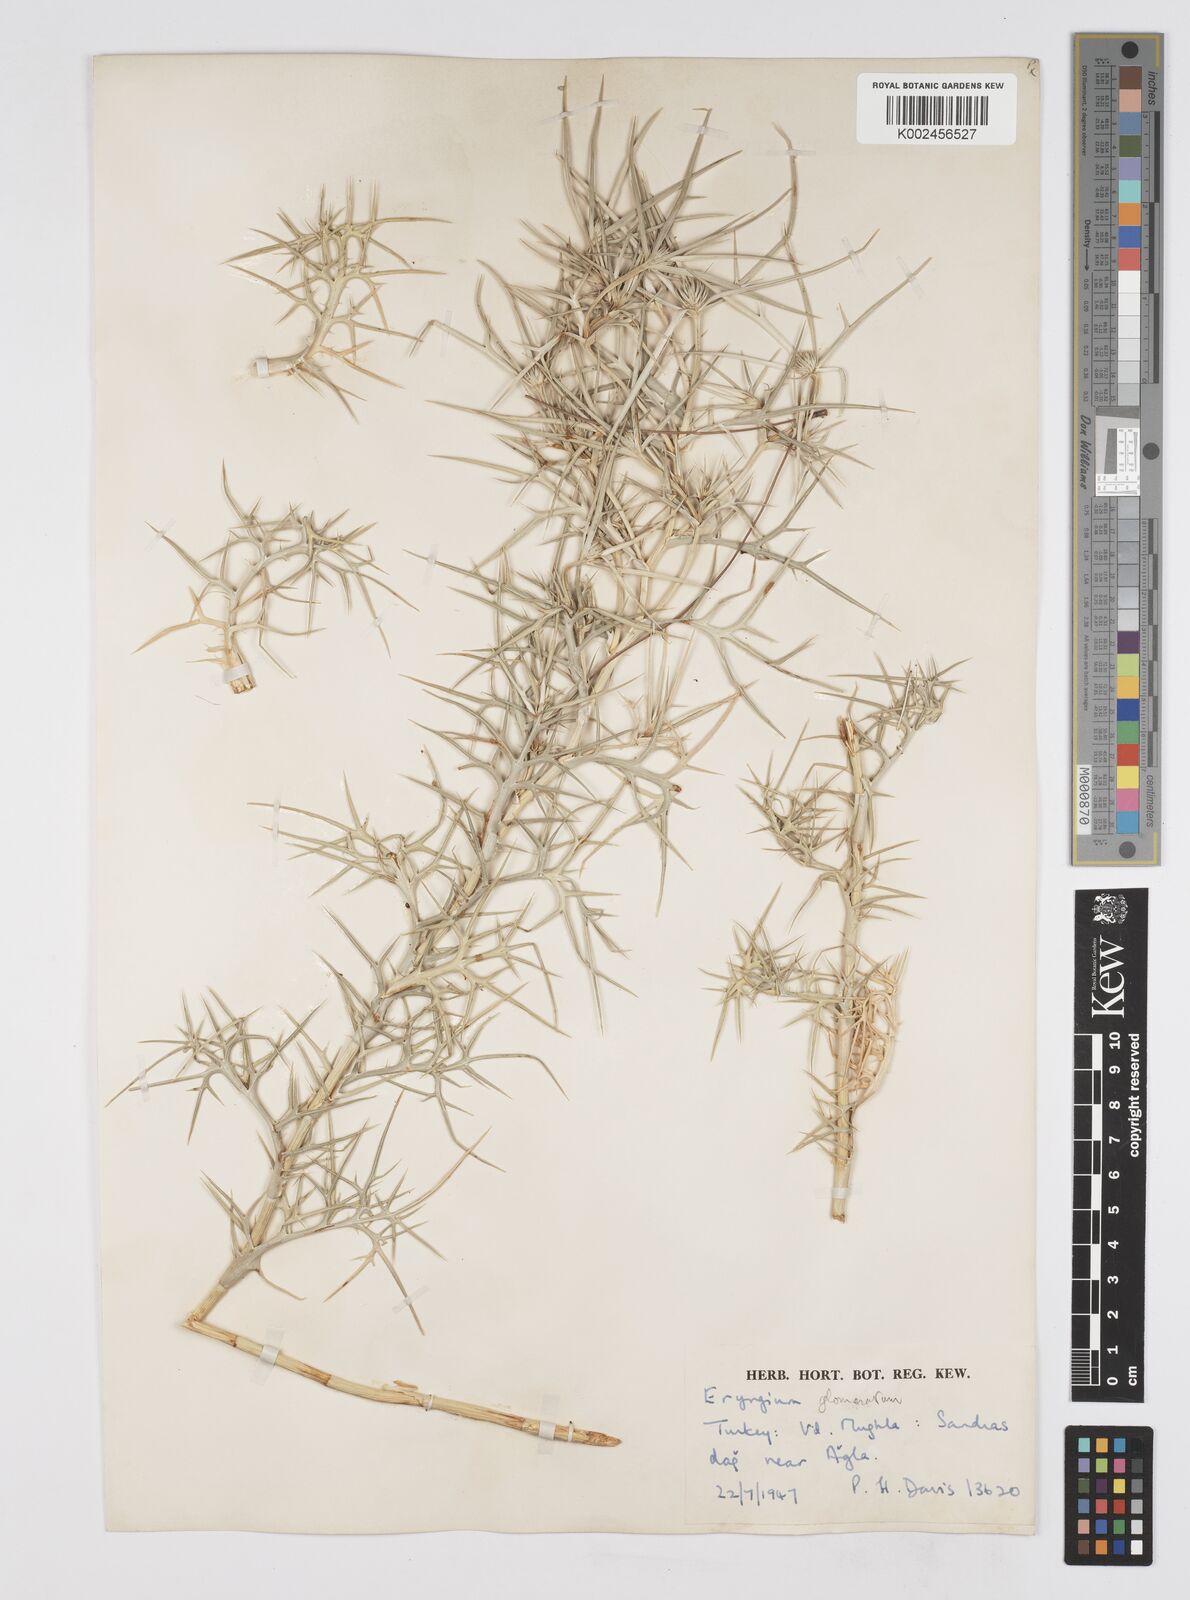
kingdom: Plantae
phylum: Tracheophyta
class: Magnoliopsida
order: Apiales
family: Apiaceae
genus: Eryngium
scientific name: Eryngium glomeratum
